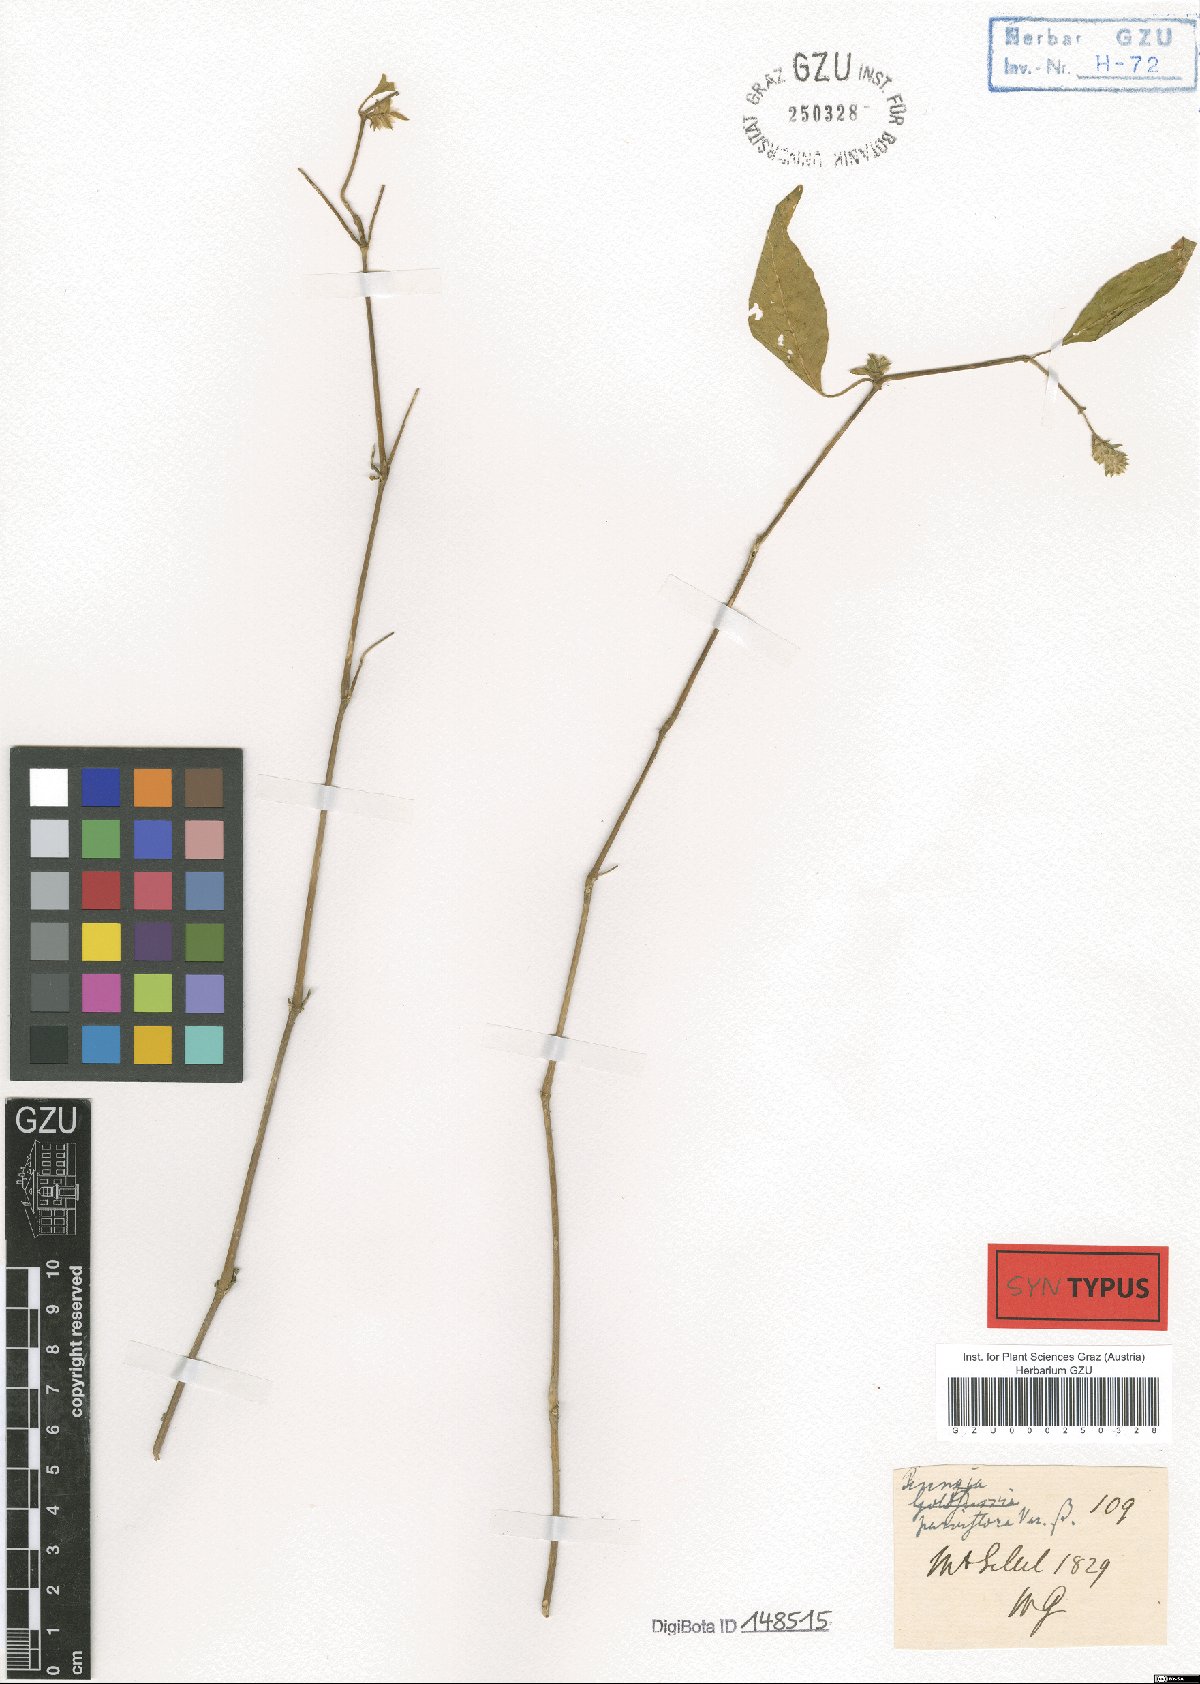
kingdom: Plantae
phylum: Tracheophyta
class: Magnoliopsida
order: Lamiales
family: Acanthaceae
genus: Rungia
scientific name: Rungia parviflora
